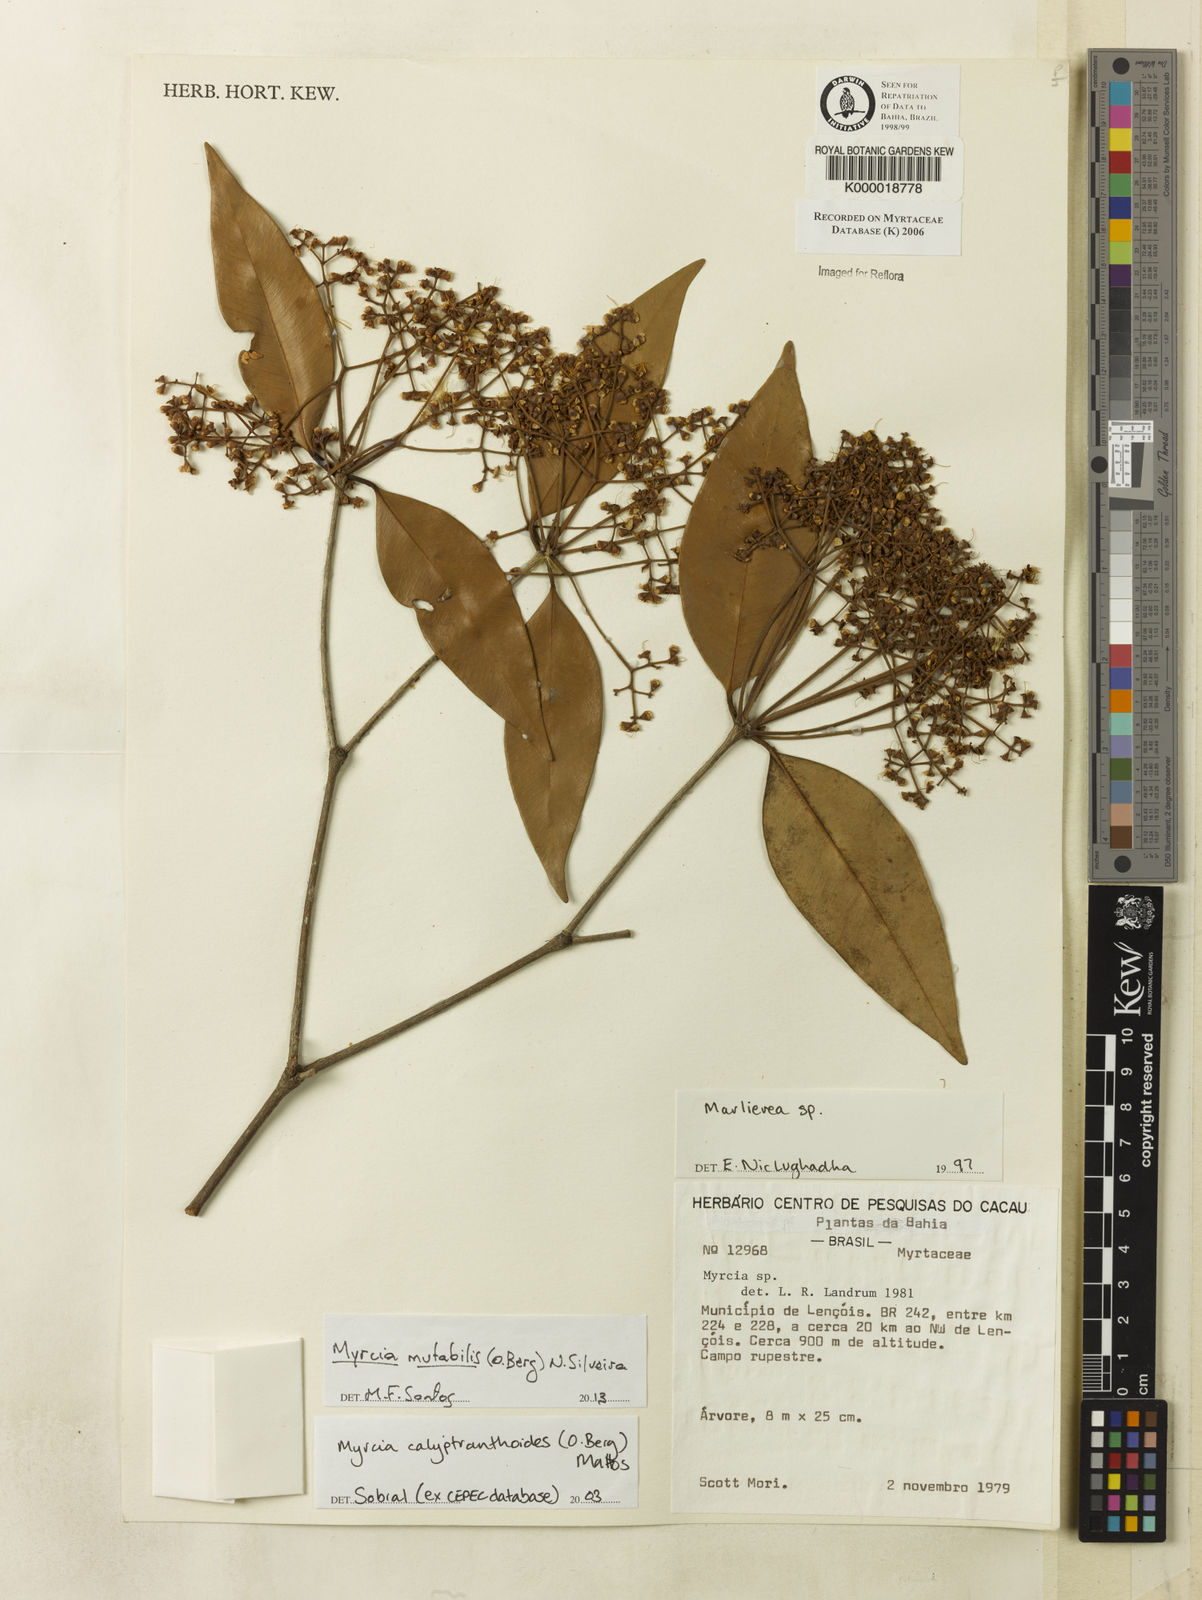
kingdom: Plantae
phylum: Tracheophyta
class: Magnoliopsida
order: Myrtales
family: Myrtaceae
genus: Marlierea
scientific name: Marlierea
